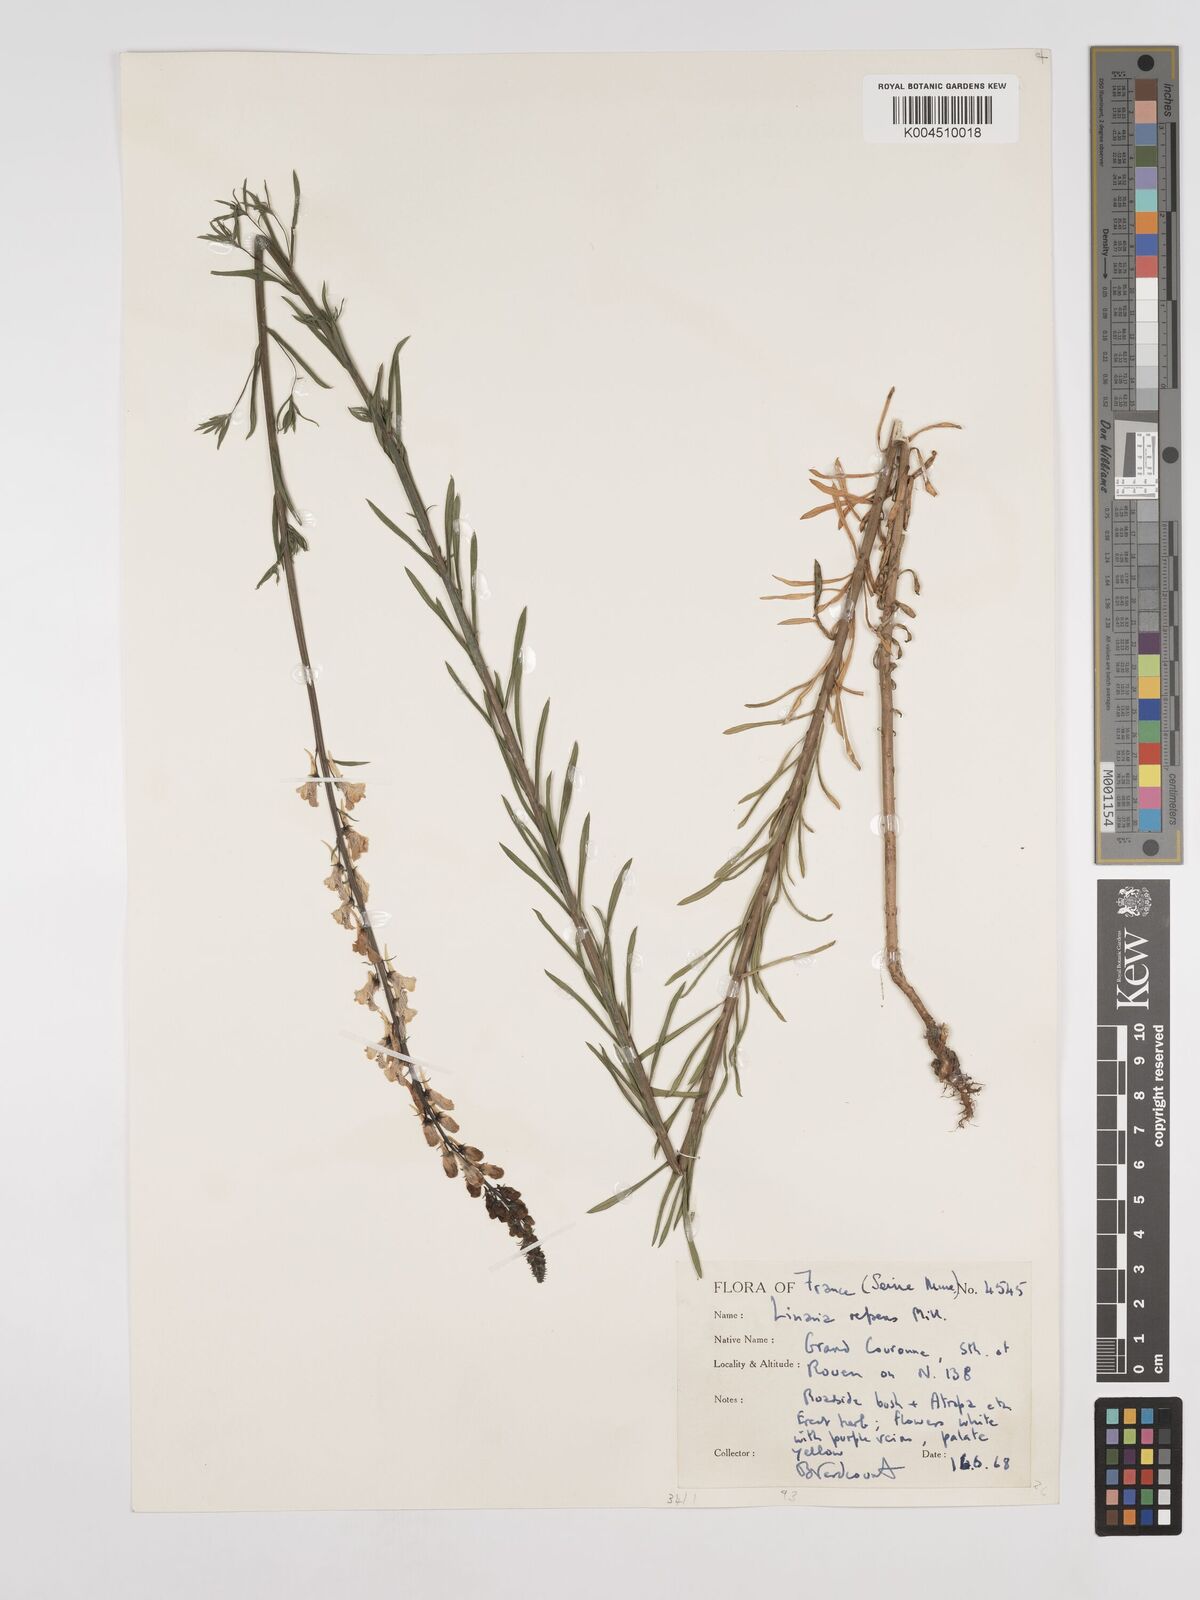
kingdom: Plantae
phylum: Tracheophyta
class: Magnoliopsida
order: Lamiales
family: Plantaginaceae
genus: Linaria
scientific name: Linaria repens
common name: Pale toadflax
